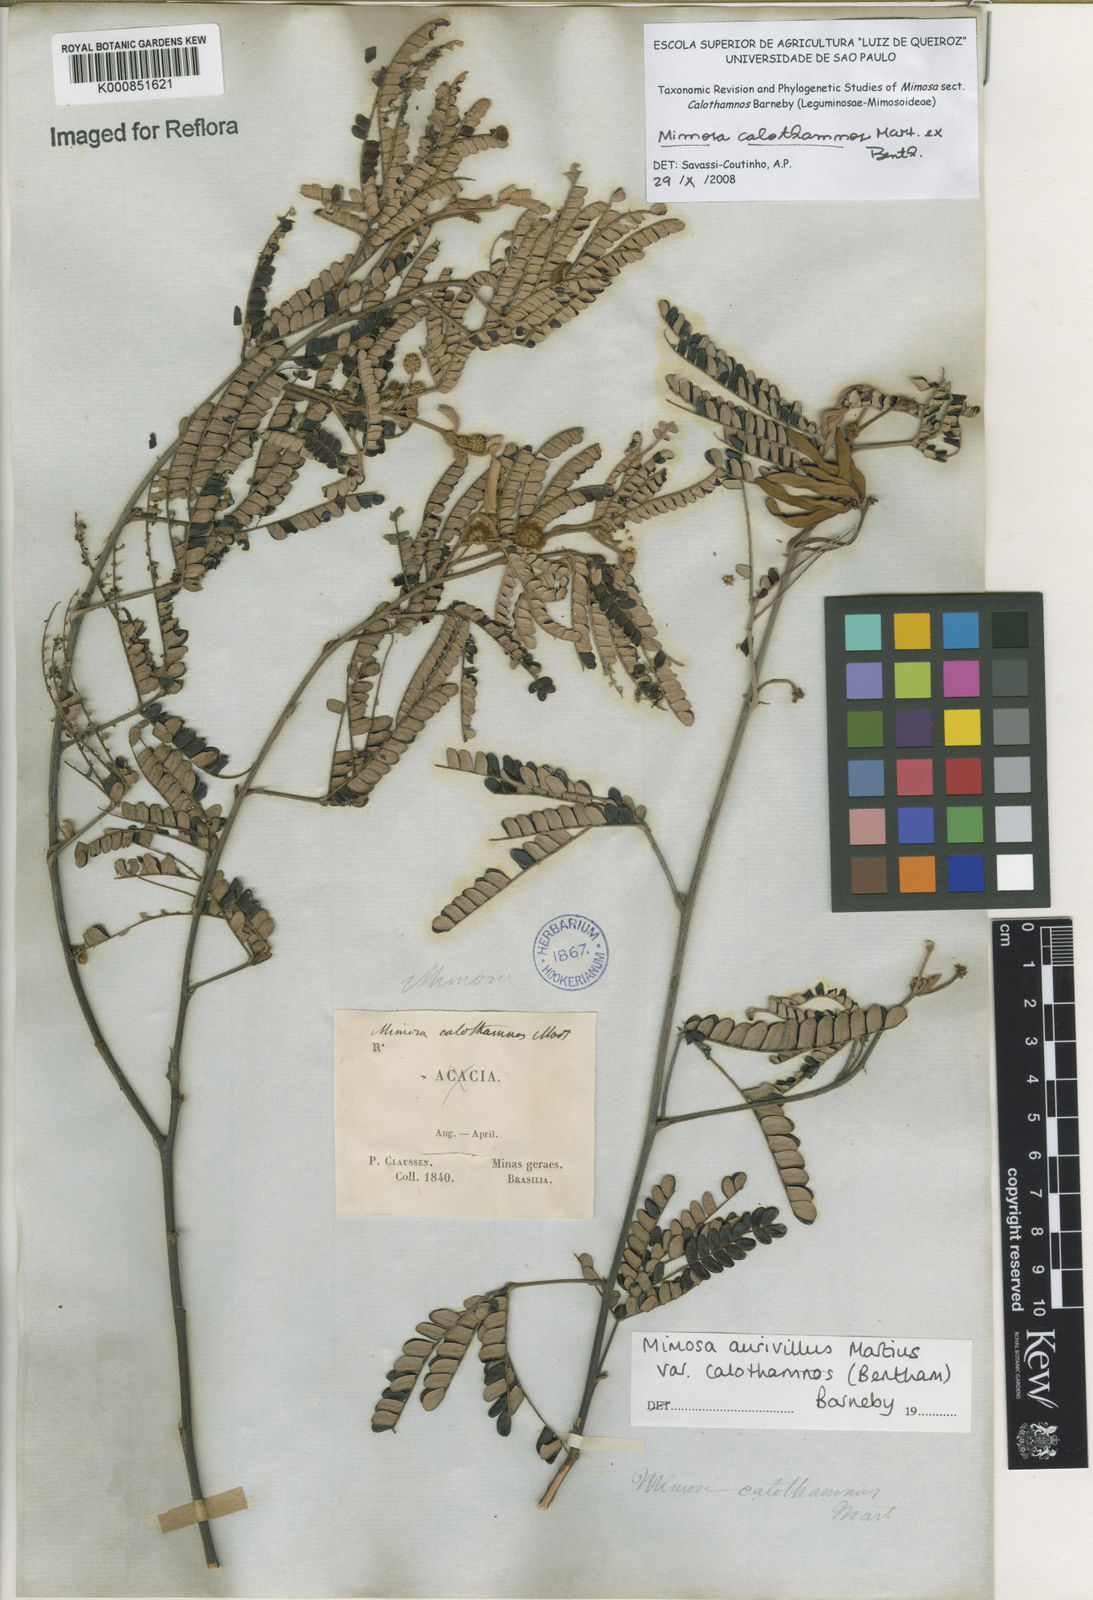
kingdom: Plantae
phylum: Tracheophyta
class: Magnoliopsida
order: Fabales
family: Fabaceae
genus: Mimosa
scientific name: Mimosa aurivillus
